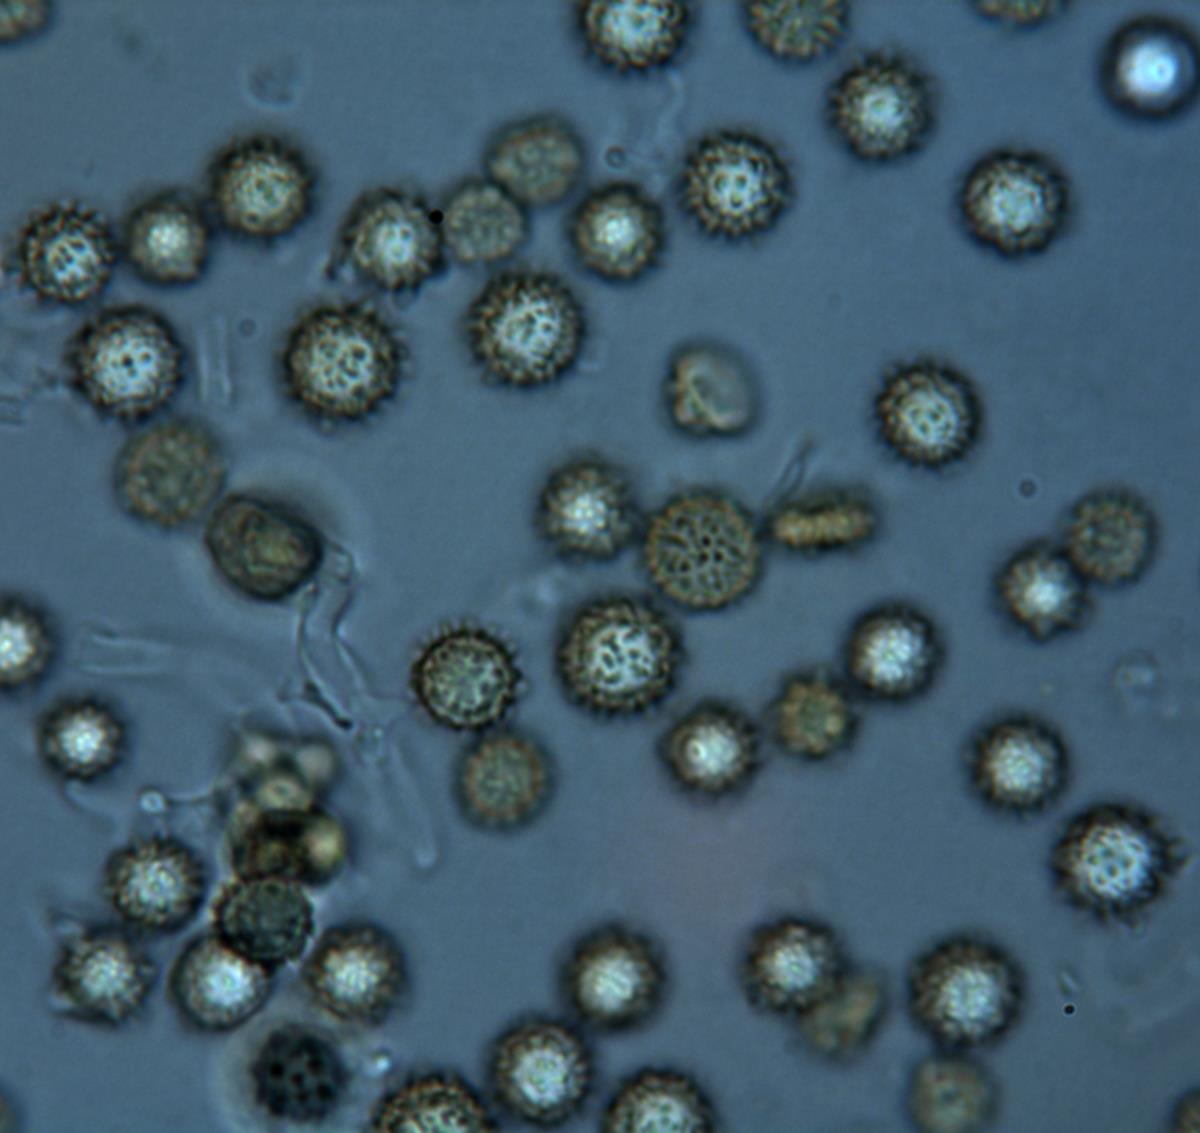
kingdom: Fungi
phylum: Basidiomycota
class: Agaricomycetes
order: Boletales
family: Sclerodermataceae
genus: Pisolithus
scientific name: Pisolithus croceorrhizus
